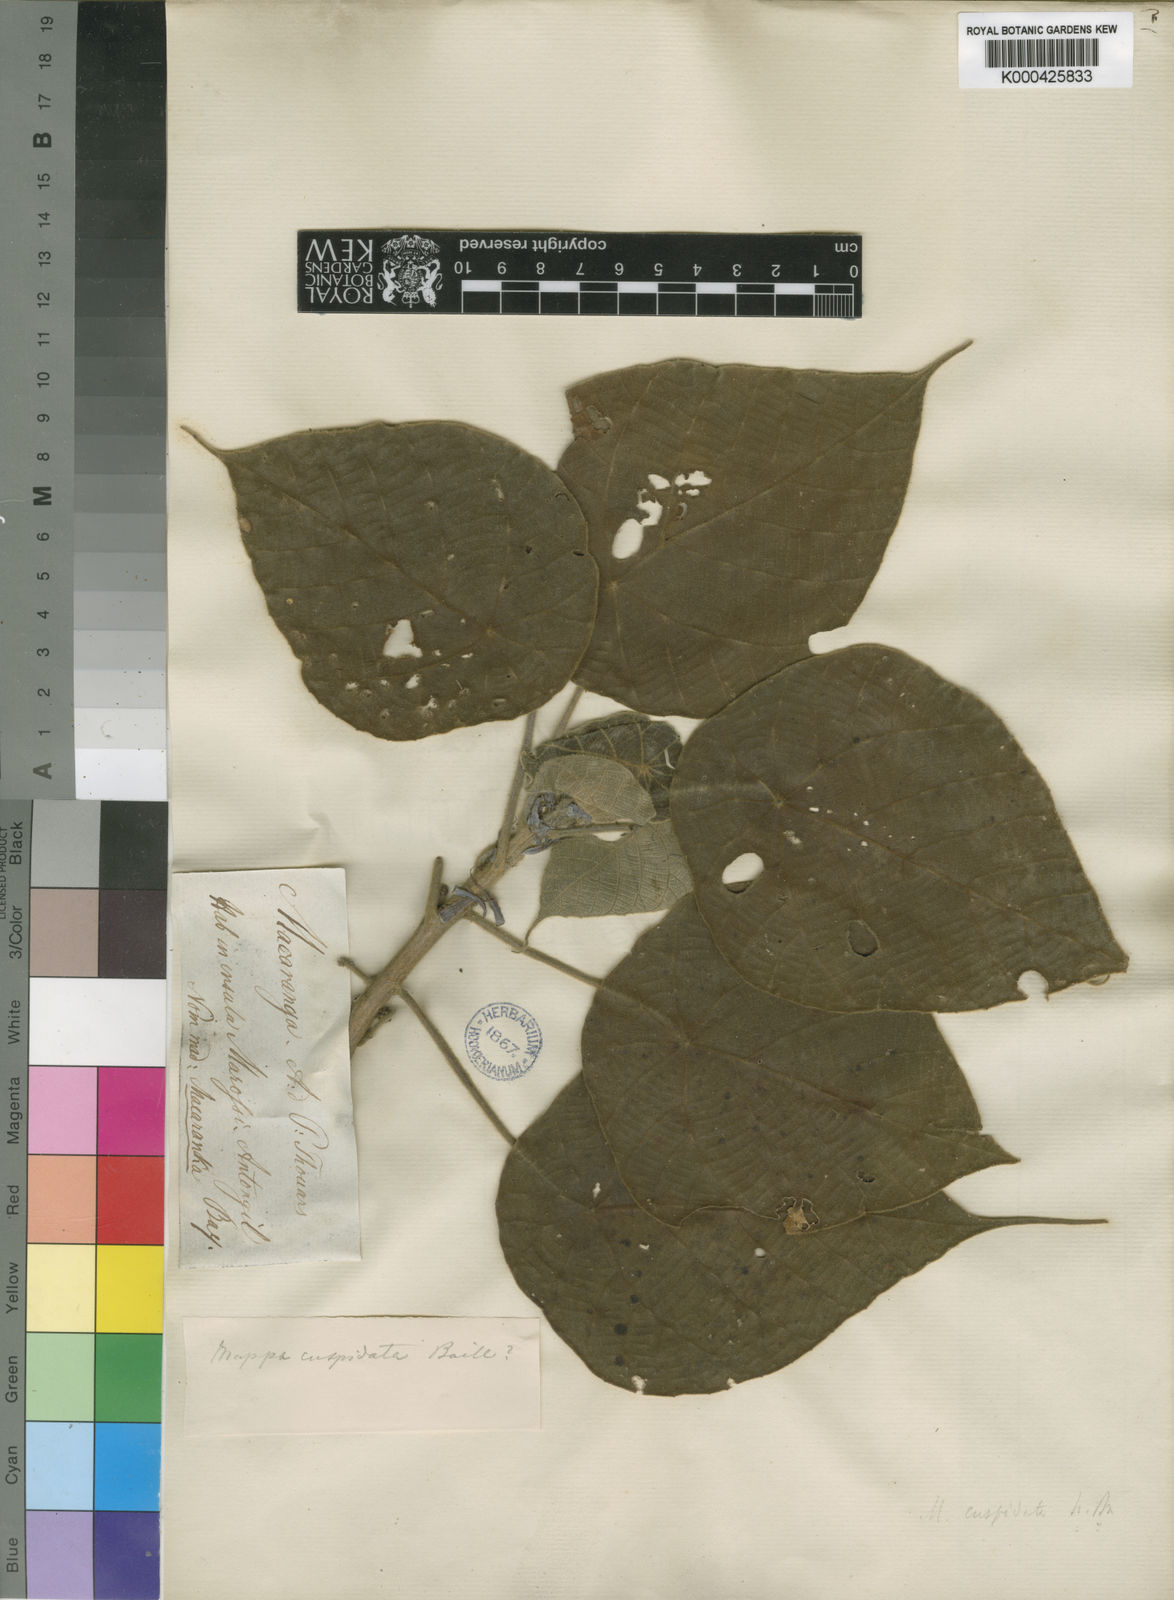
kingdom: Plantae
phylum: Tracheophyta
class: Magnoliopsida
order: Malpighiales
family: Euphorbiaceae
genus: Macaranga
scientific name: Macaranga cuspidata
